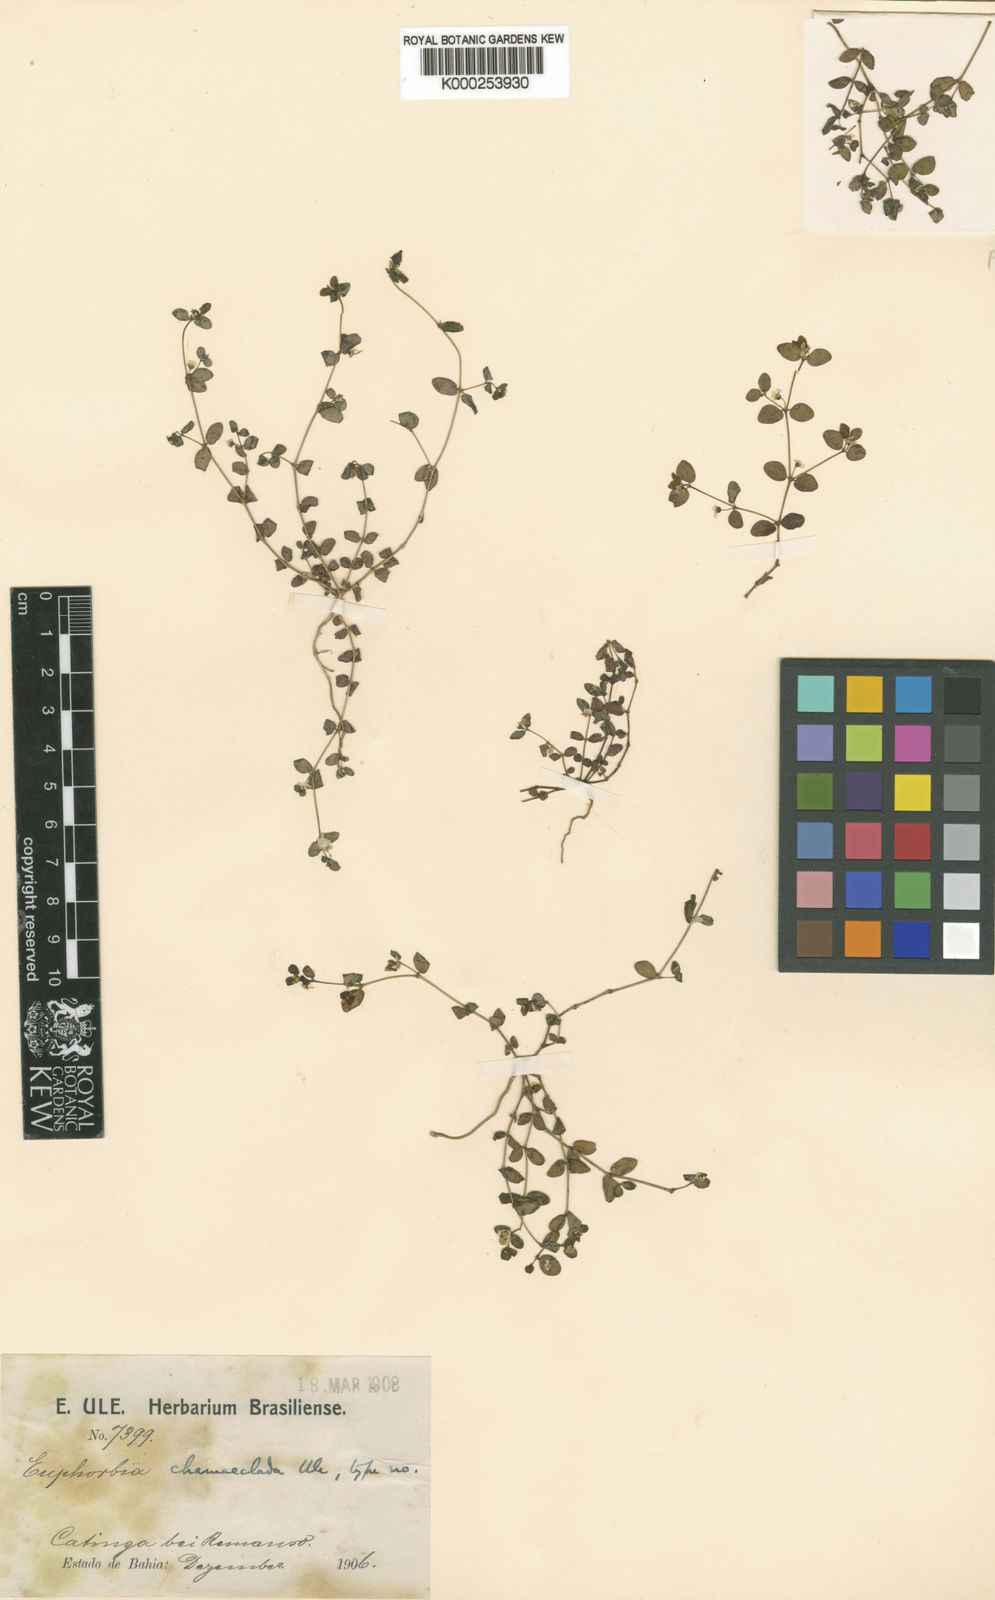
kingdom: Plantae
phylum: Tracheophyta
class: Magnoliopsida
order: Malpighiales
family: Euphorbiaceae
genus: Euphorbia
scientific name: Euphorbia chamaeclada
